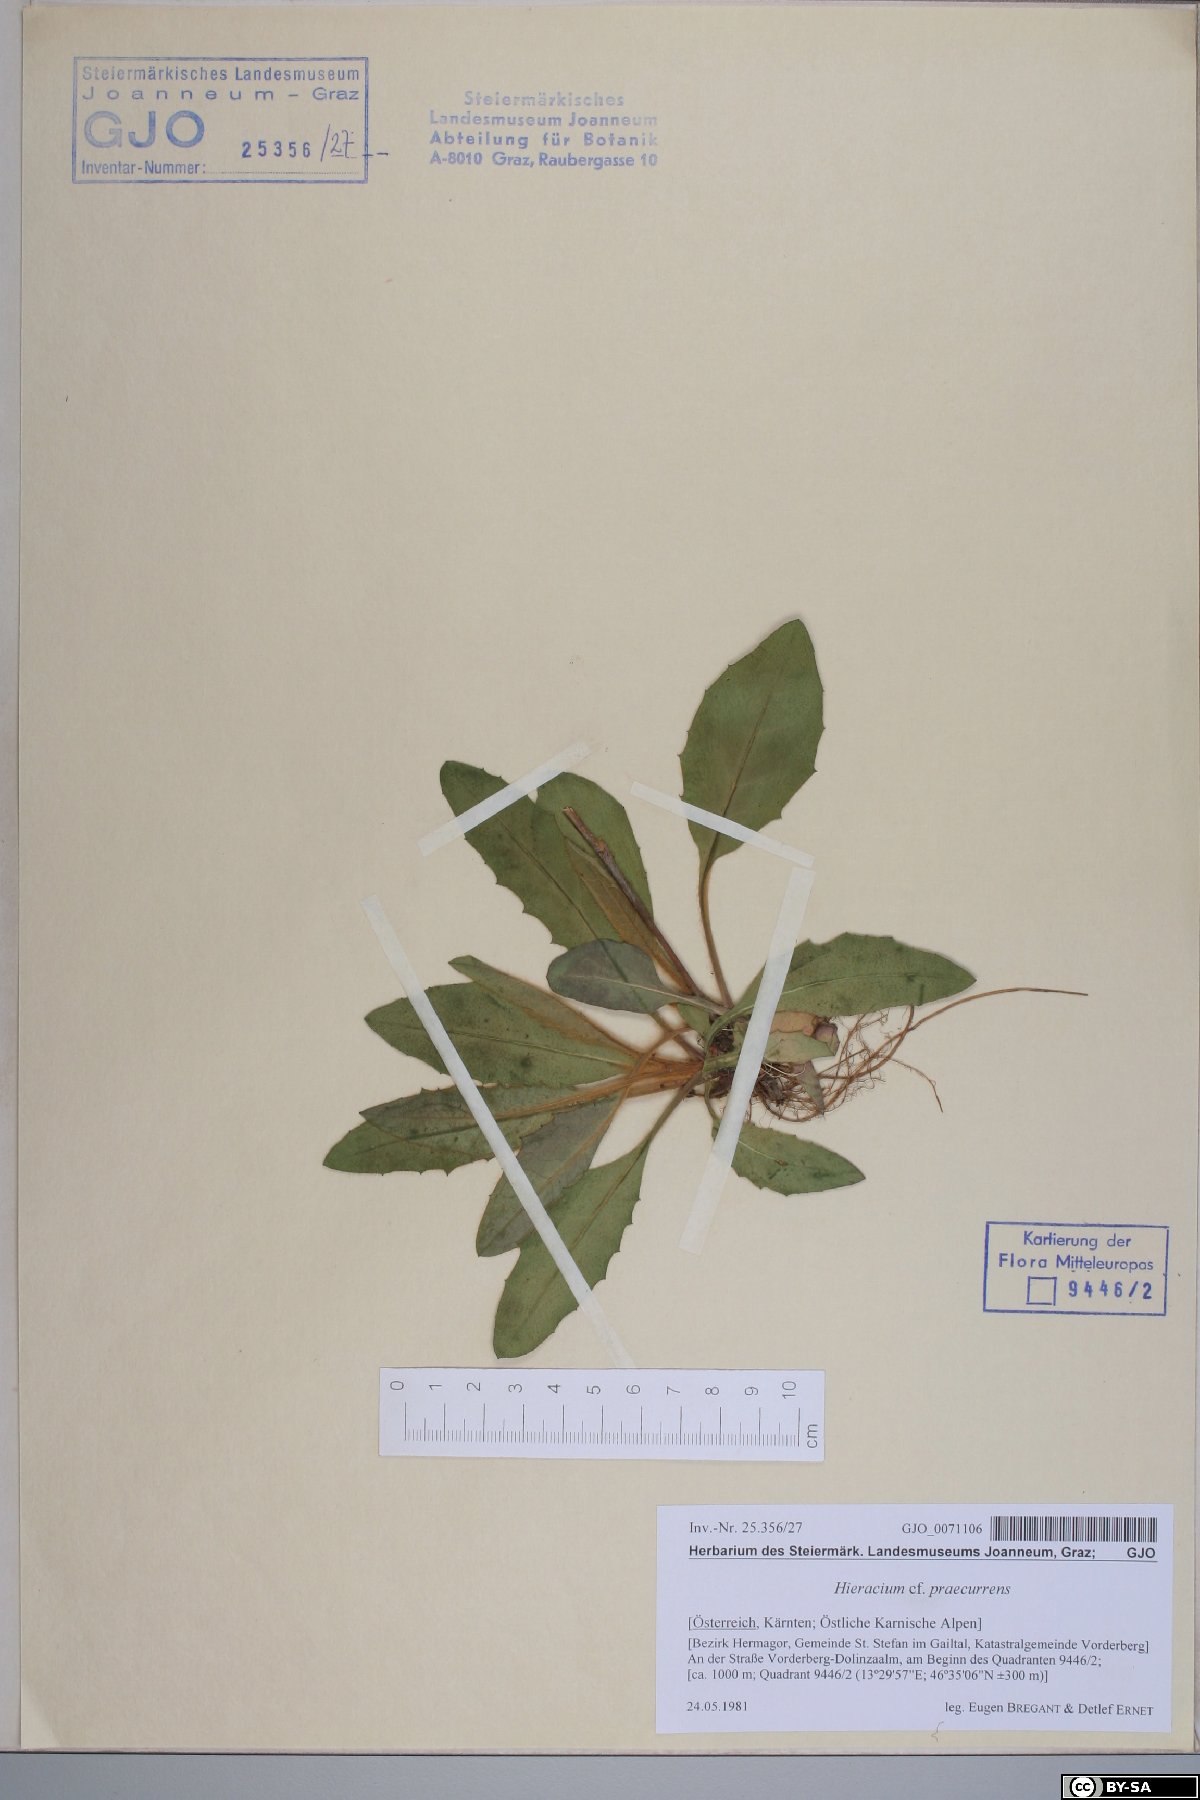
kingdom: Plantae
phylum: Tracheophyta
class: Magnoliopsida
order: Asterales
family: Asteraceae
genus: Hieracium
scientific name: Hieracium rotundatum
